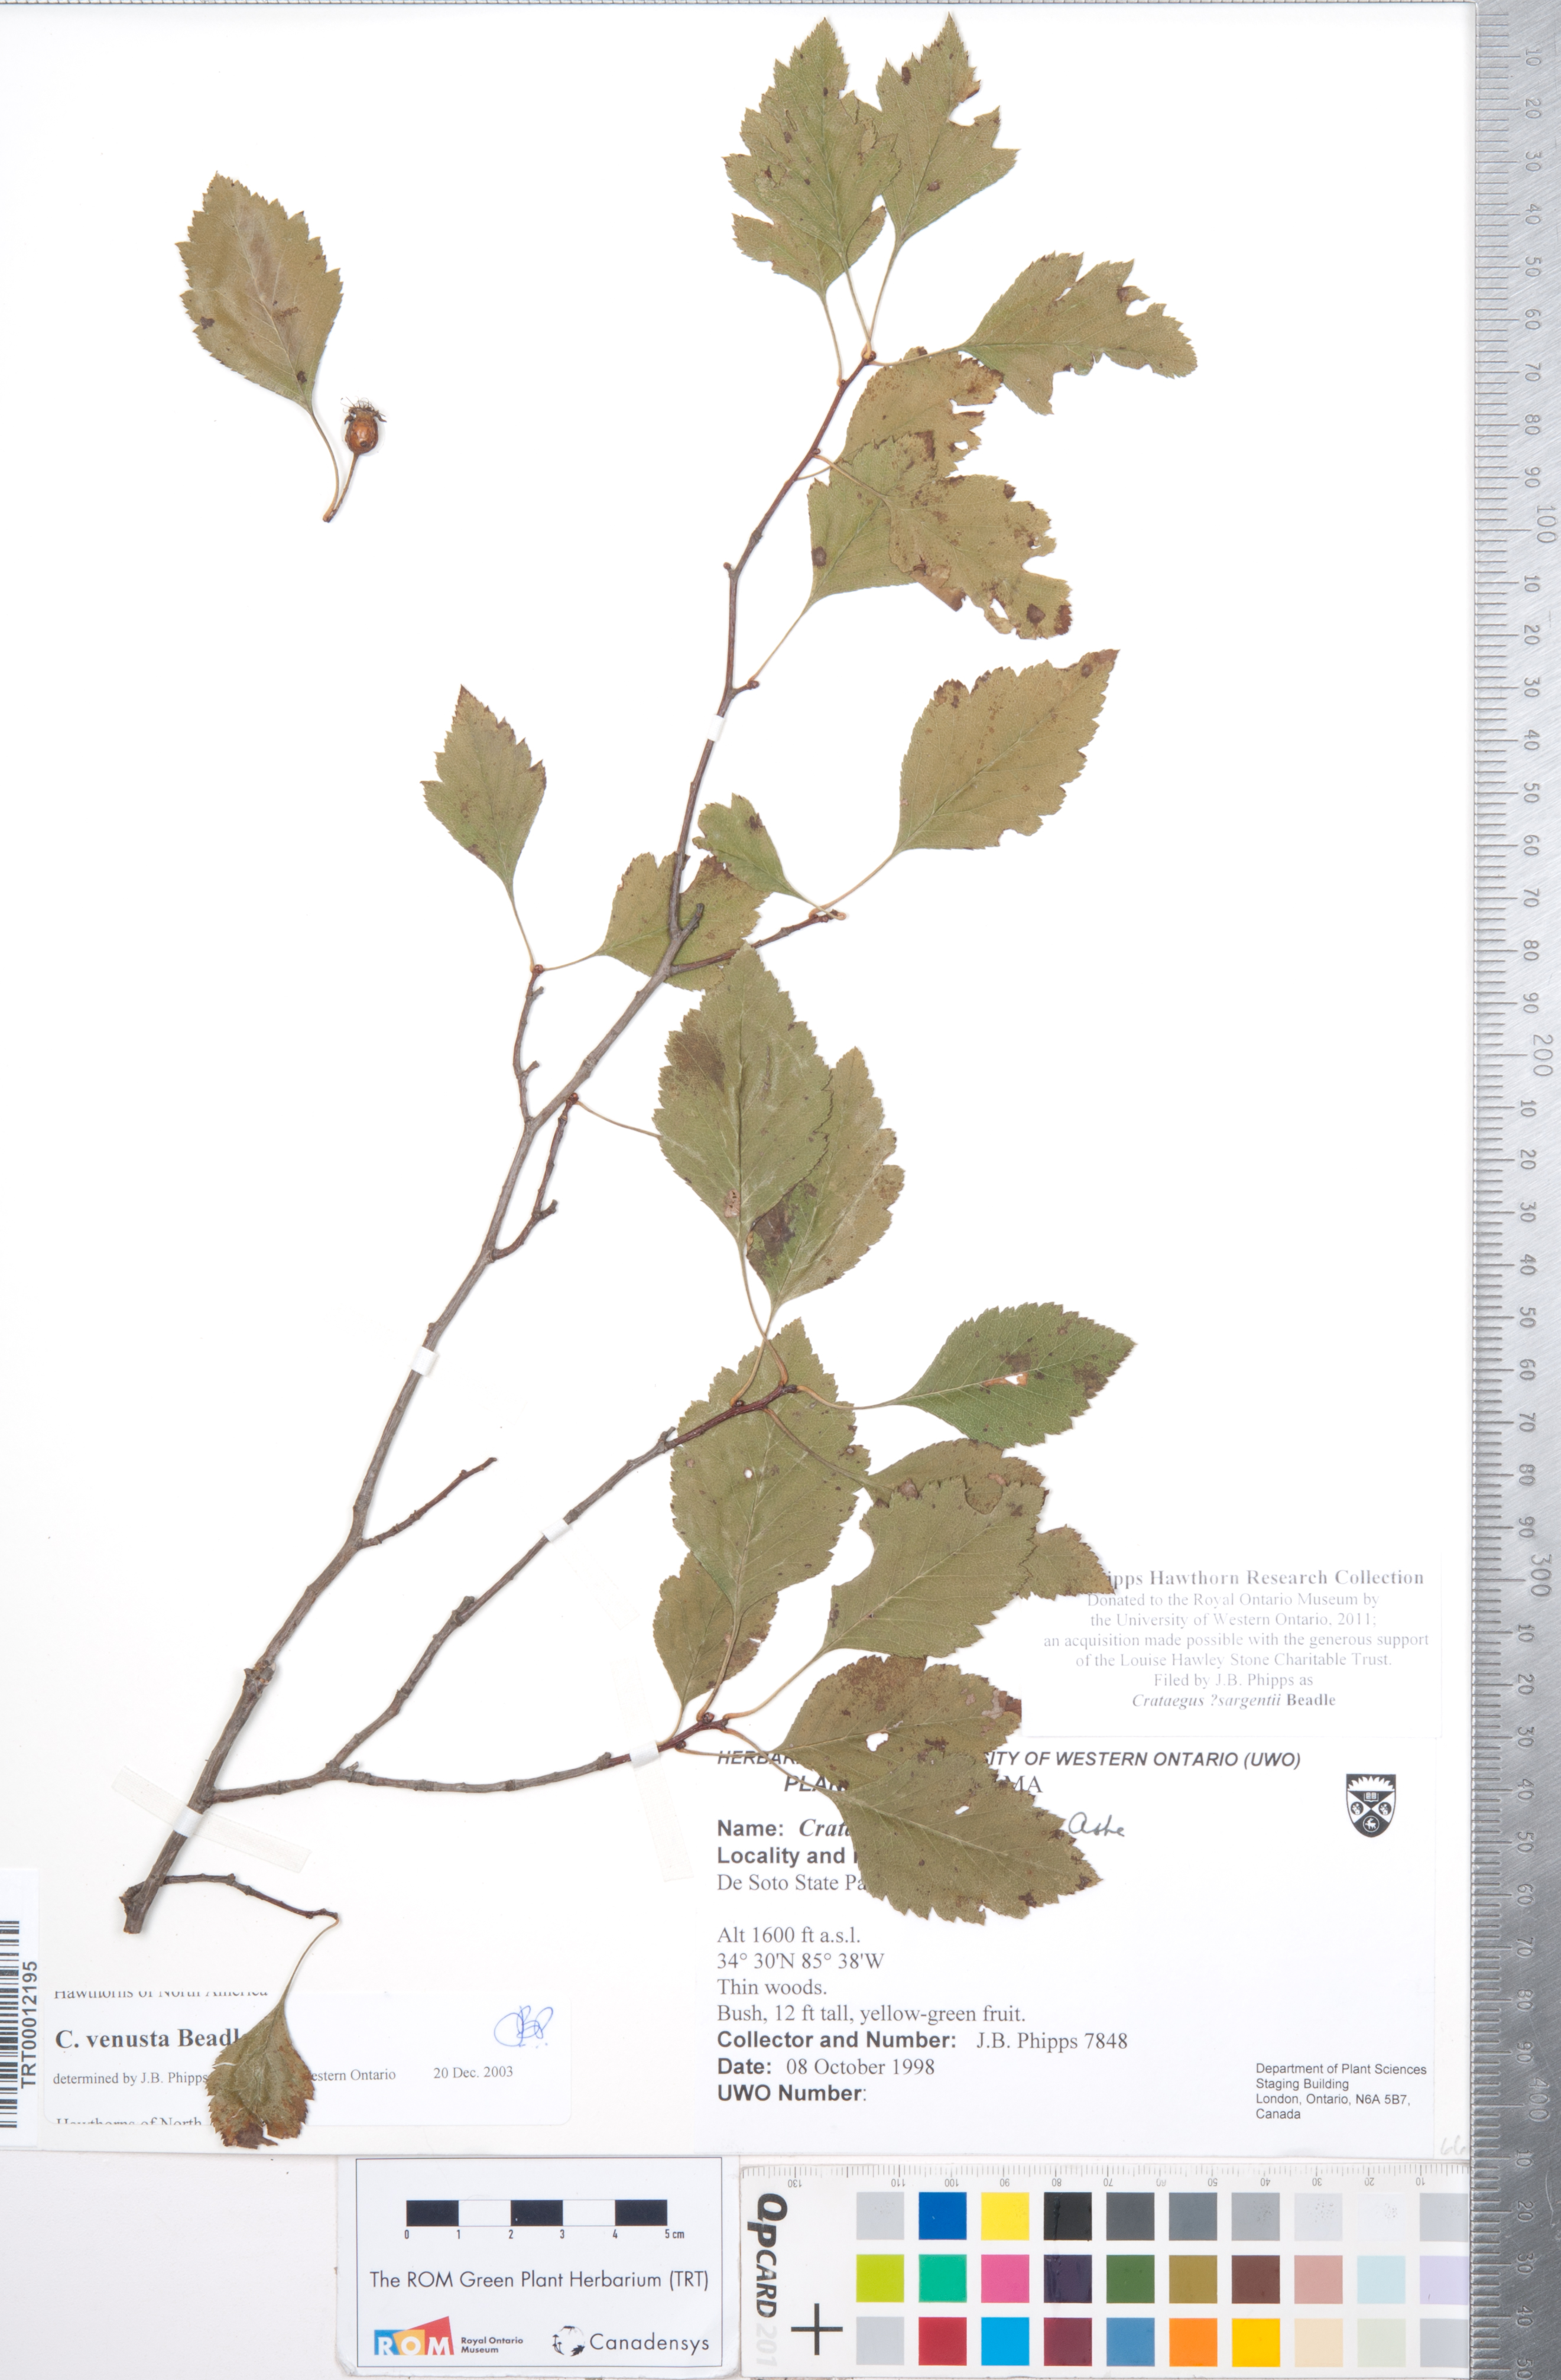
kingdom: Plantae
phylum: Tracheophyta
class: Magnoliopsida
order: Rosales
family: Rosaceae
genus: Crataegus
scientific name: Crataegus sargentii
